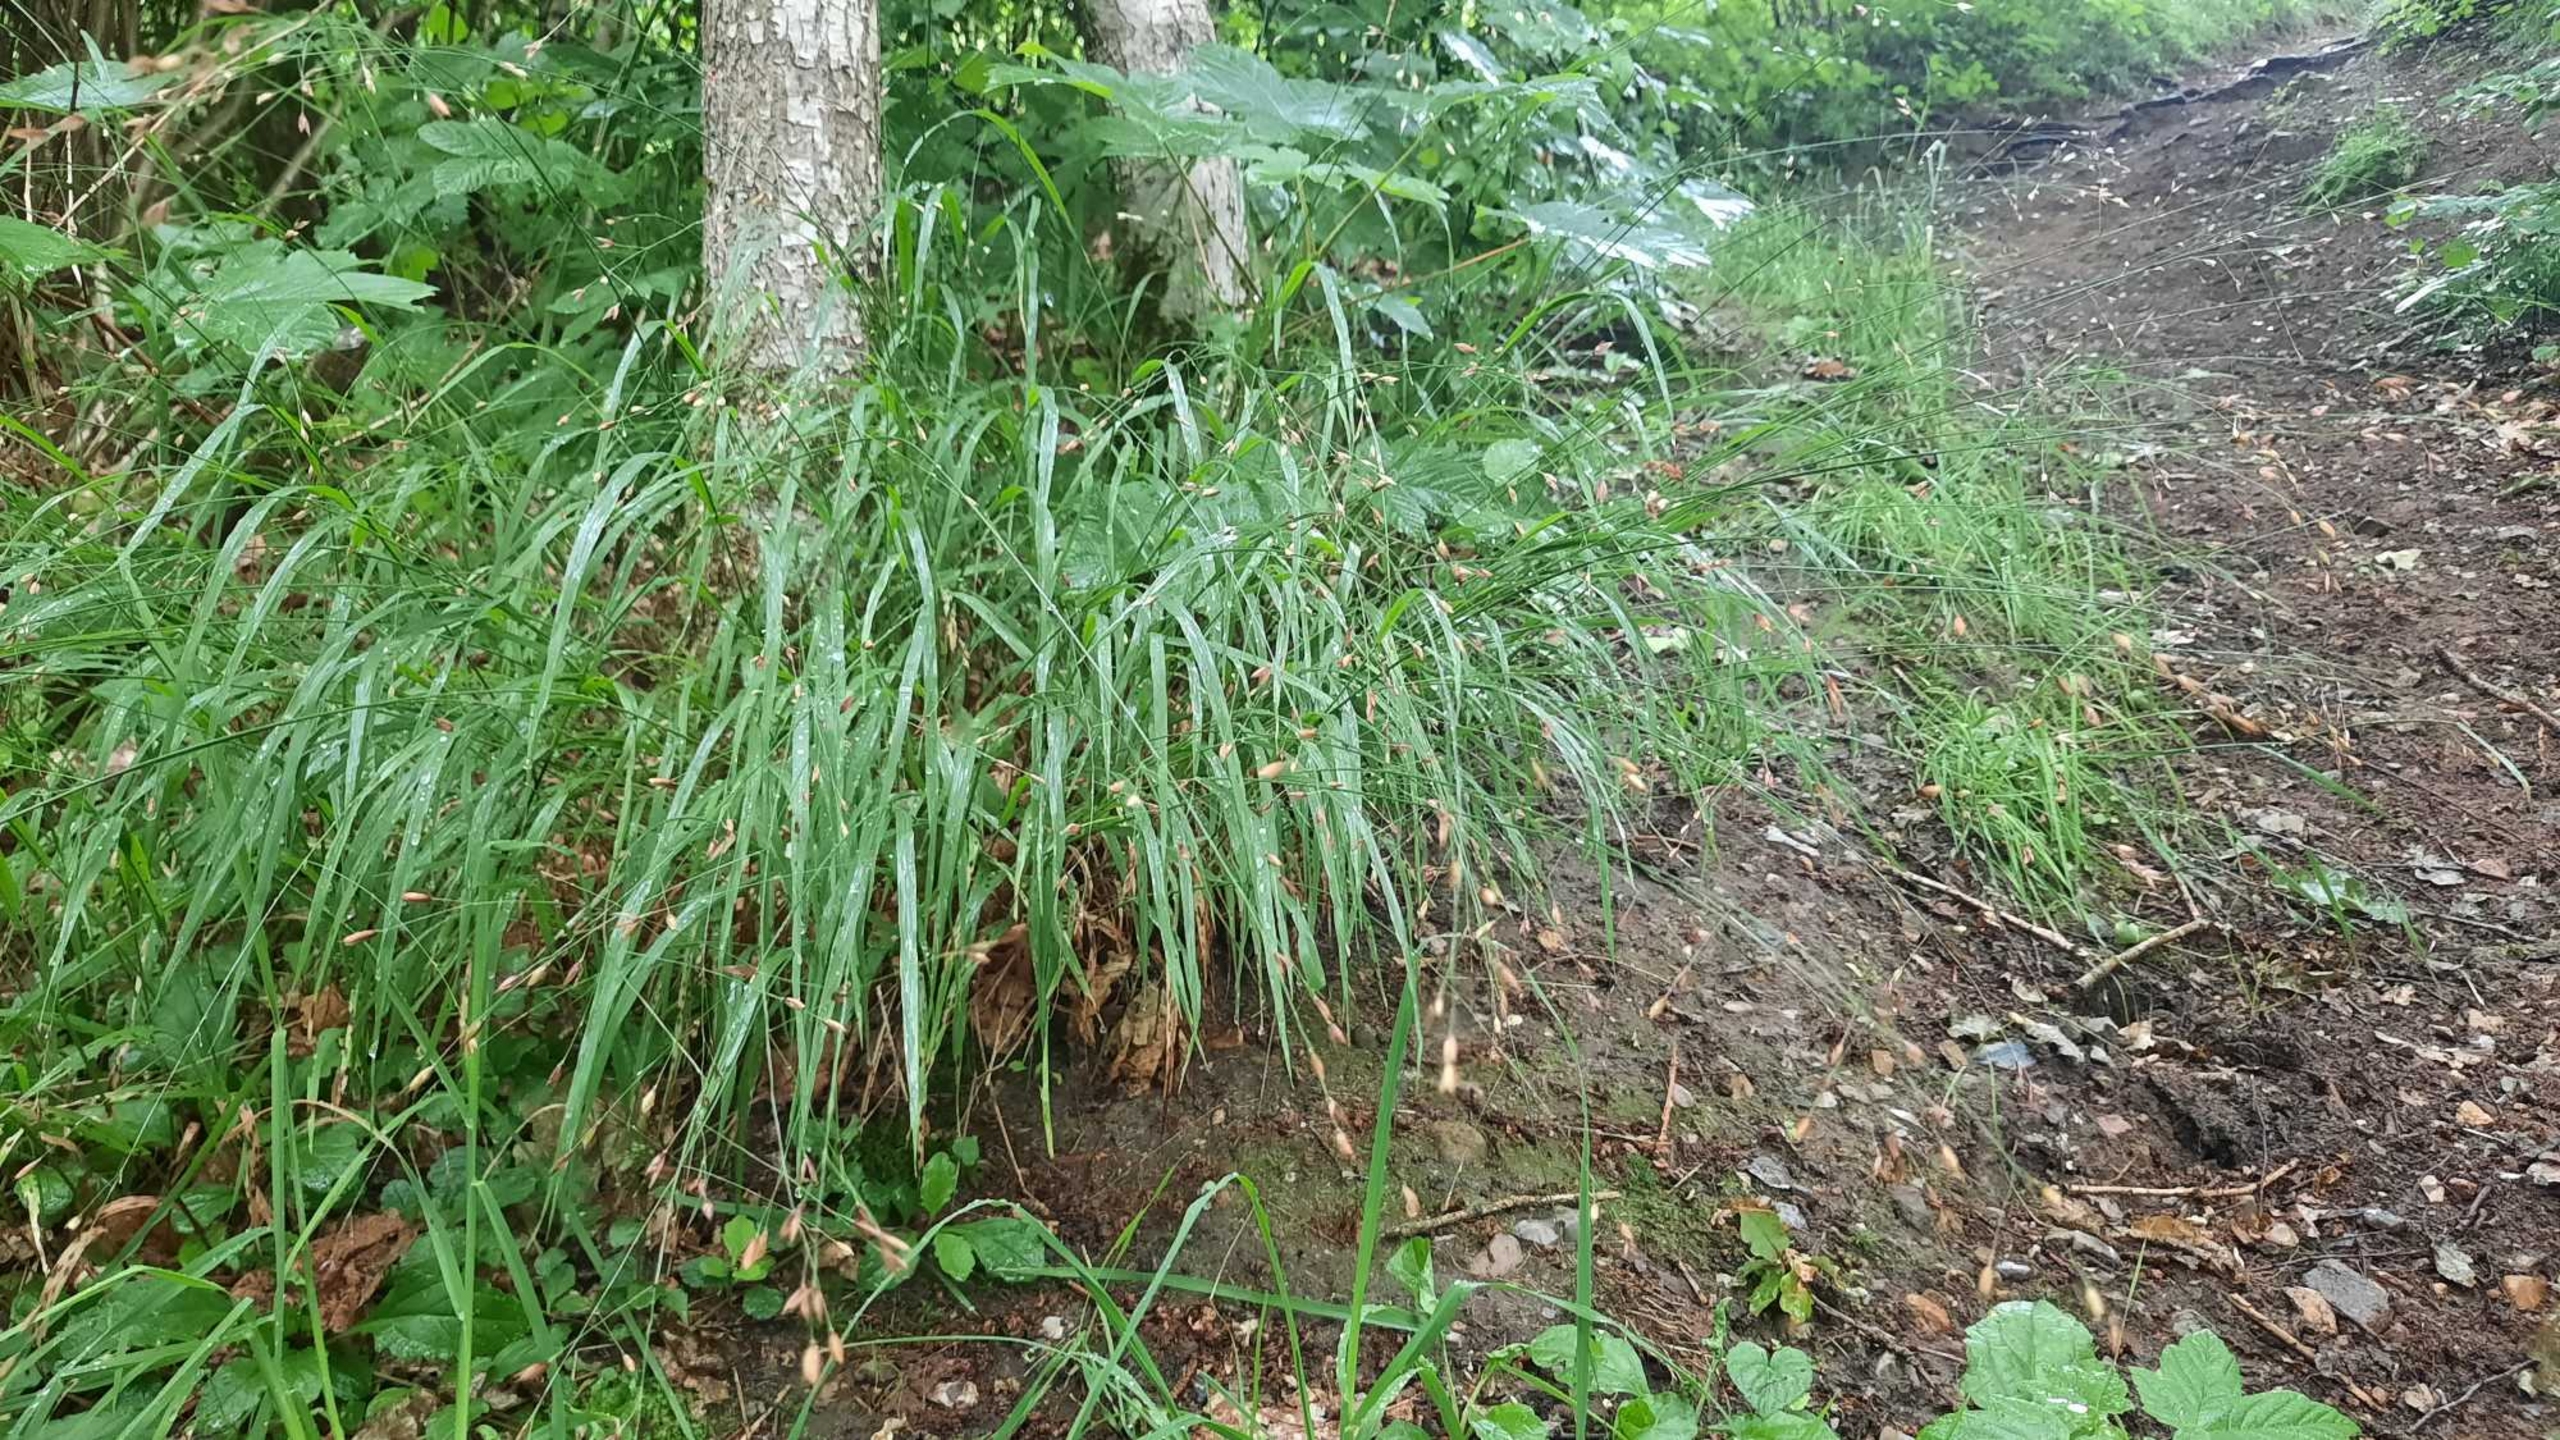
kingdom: Plantae
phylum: Tracheophyta
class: Liliopsida
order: Poales
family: Poaceae
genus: Melica
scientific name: Melica uniflora
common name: Enblomstret flitteraks
